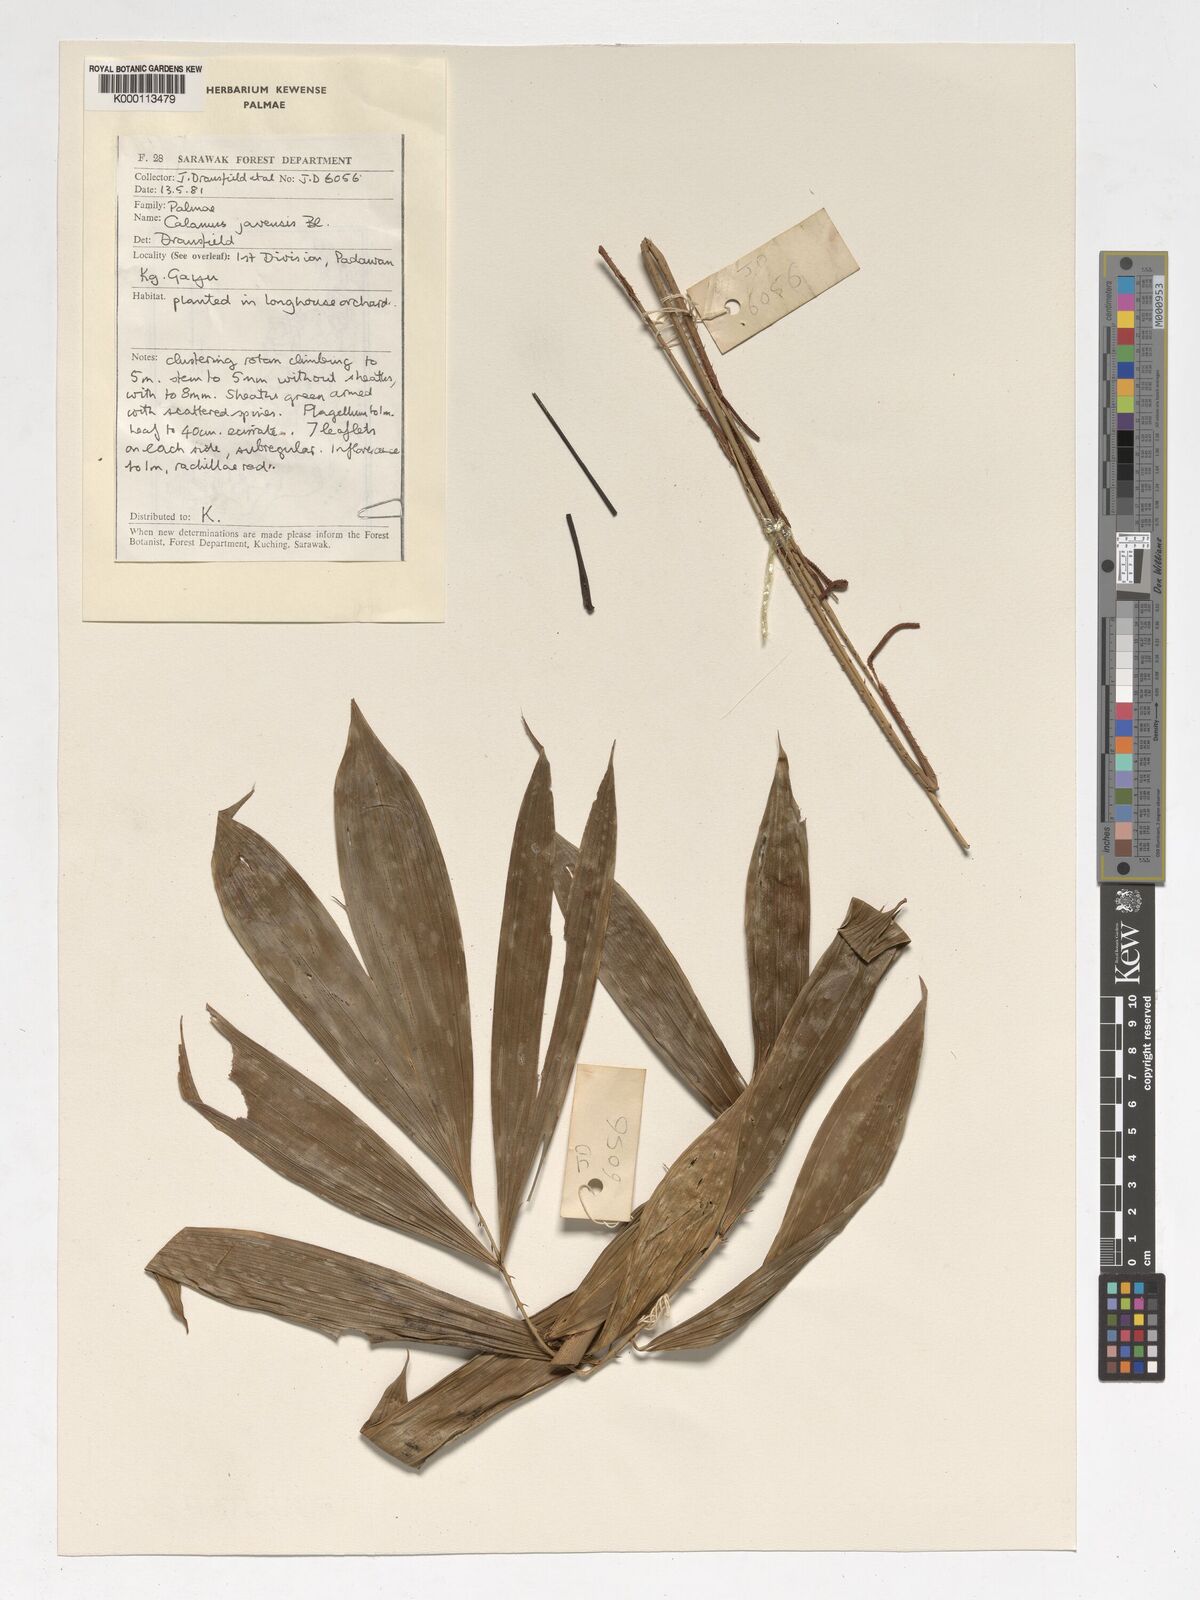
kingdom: Plantae
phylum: Tracheophyta
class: Liliopsida
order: Arecales
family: Arecaceae
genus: Calamus
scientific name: Calamus javensis
